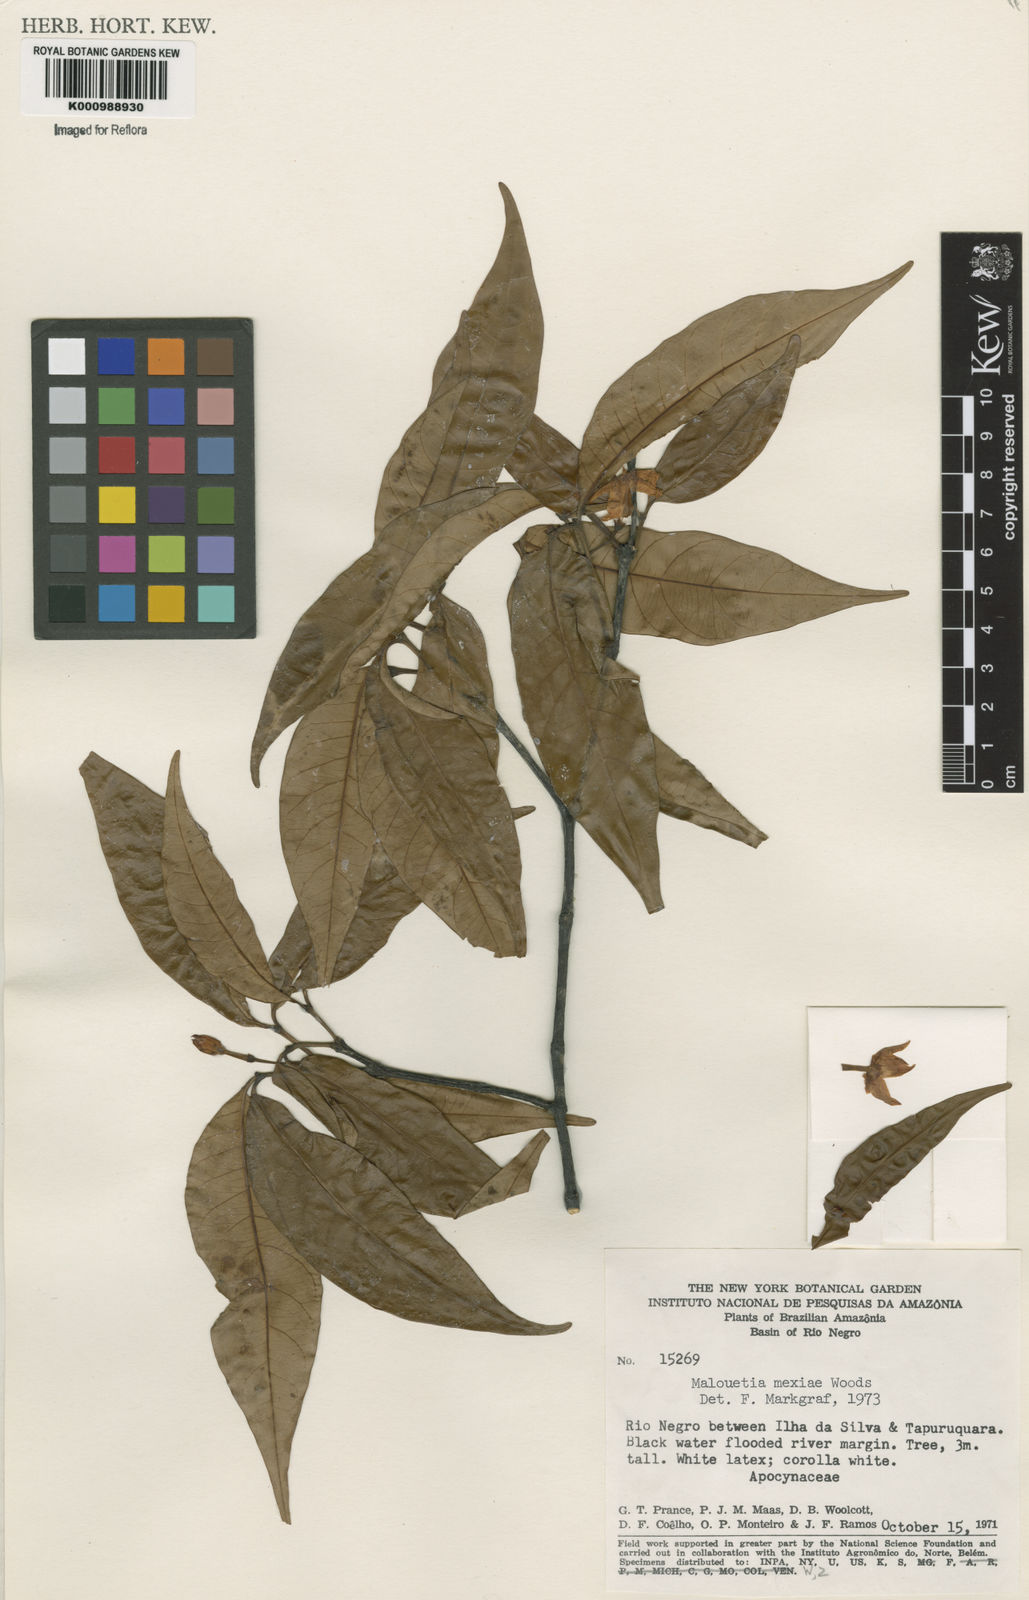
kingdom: Plantae
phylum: Tracheophyta
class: Magnoliopsida
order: Gentianales
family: Apocynaceae
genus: Malouetia
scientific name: Malouetia
